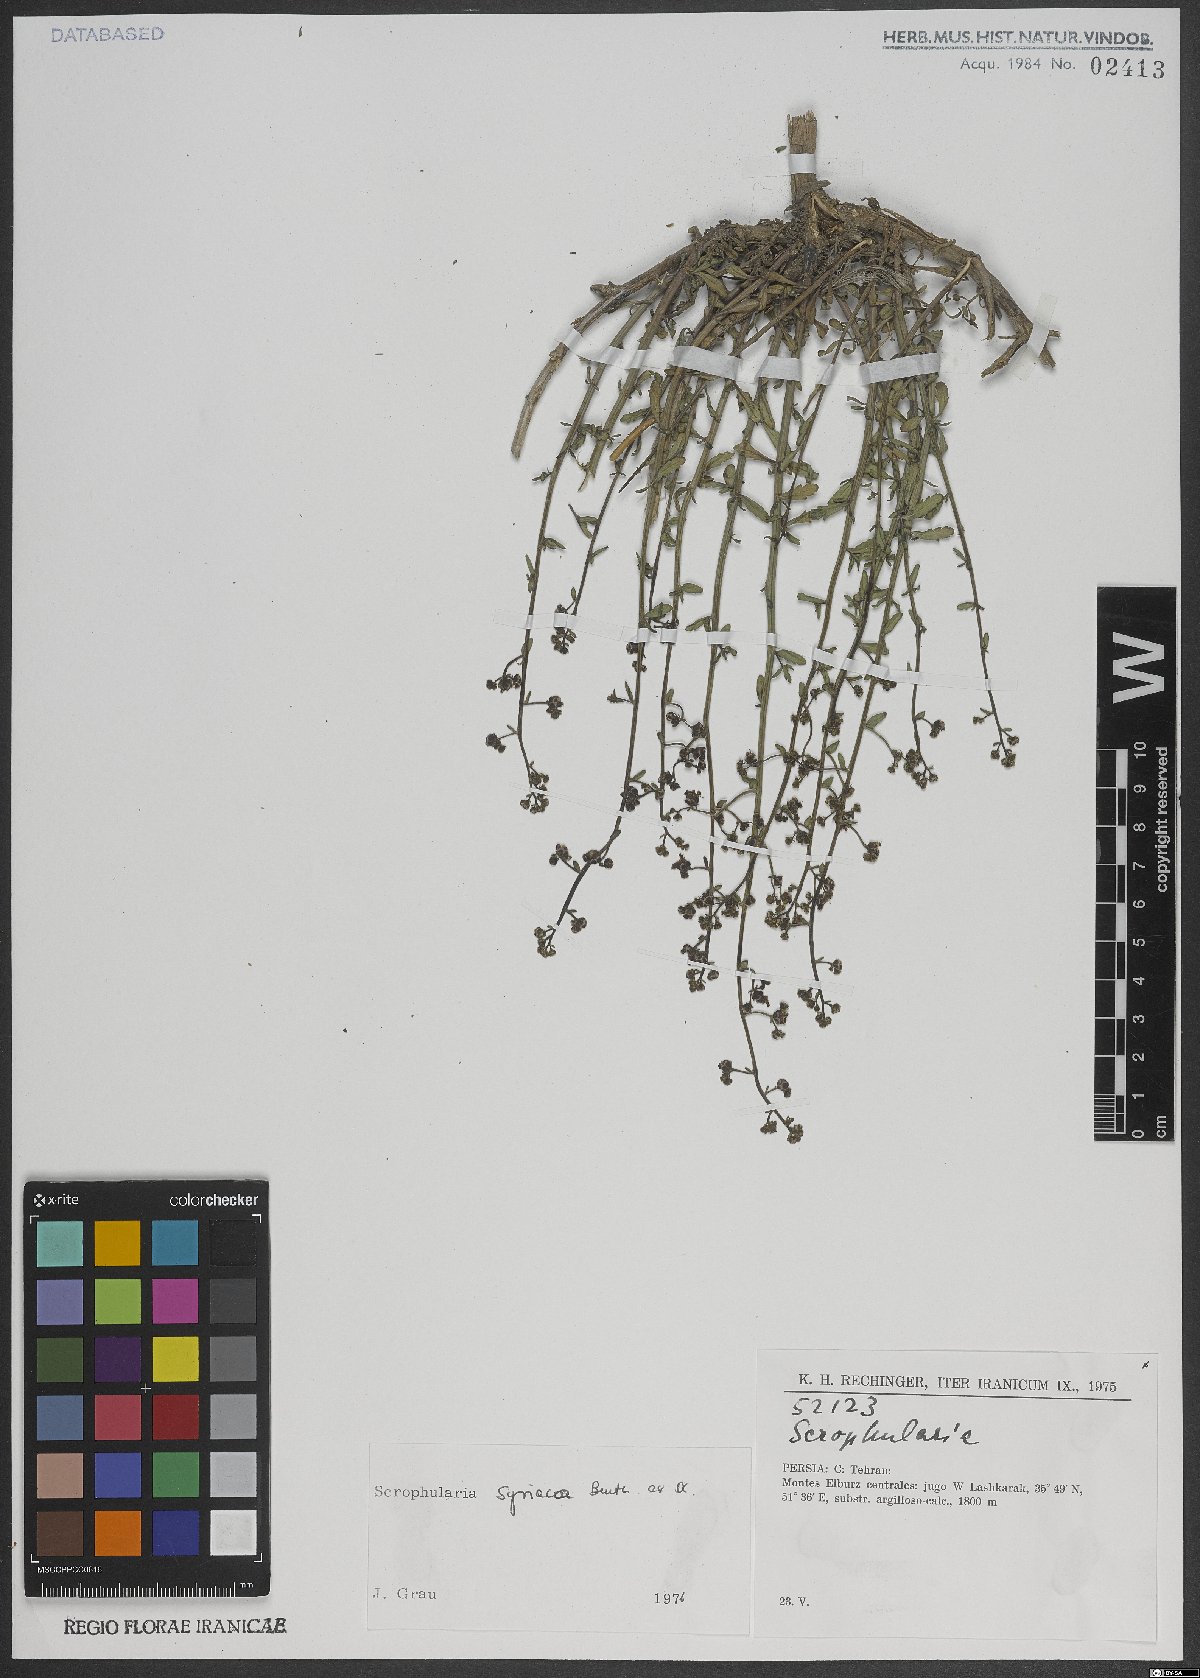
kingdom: Plantae
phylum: Tracheophyta
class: Magnoliopsida
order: Lamiales
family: Scrophulariaceae
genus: Scrophularia
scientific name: Scrophularia hypericifolia
